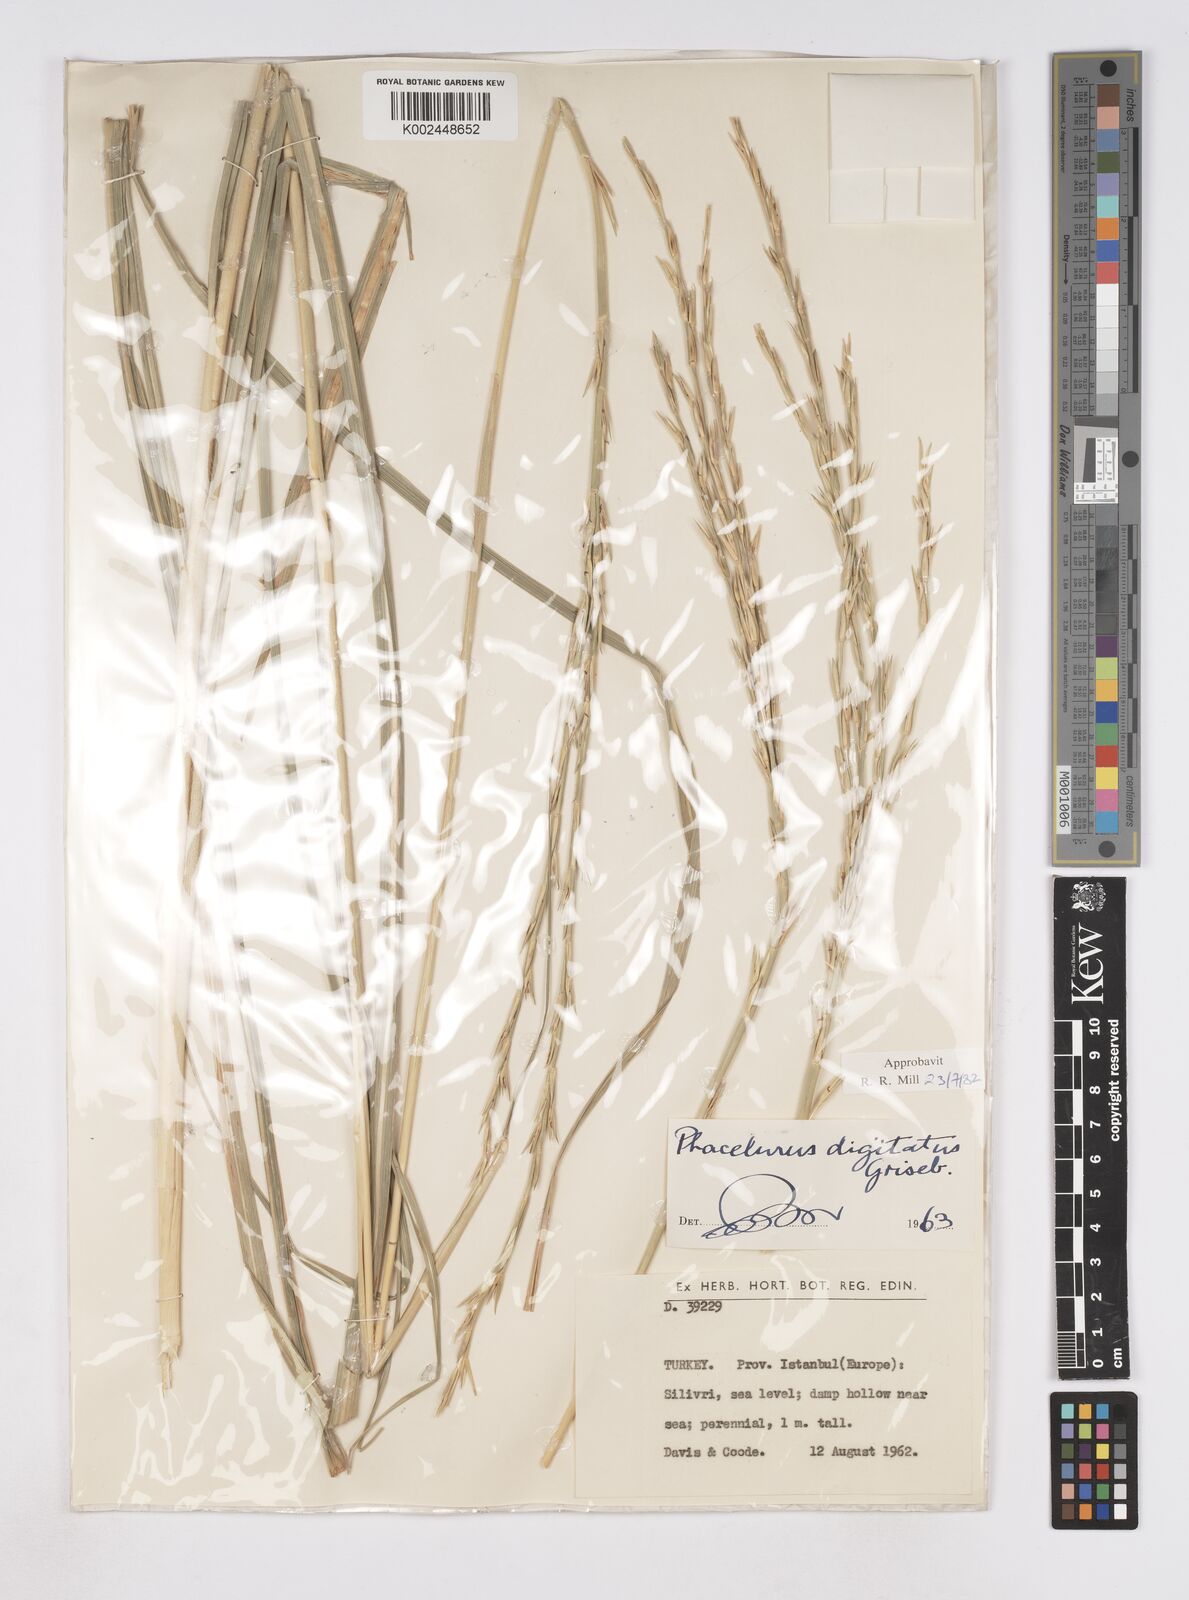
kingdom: Plantae
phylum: Tracheophyta
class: Liliopsida
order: Poales
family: Poaceae
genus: Phacelurus
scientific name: Phacelurus digitatus
